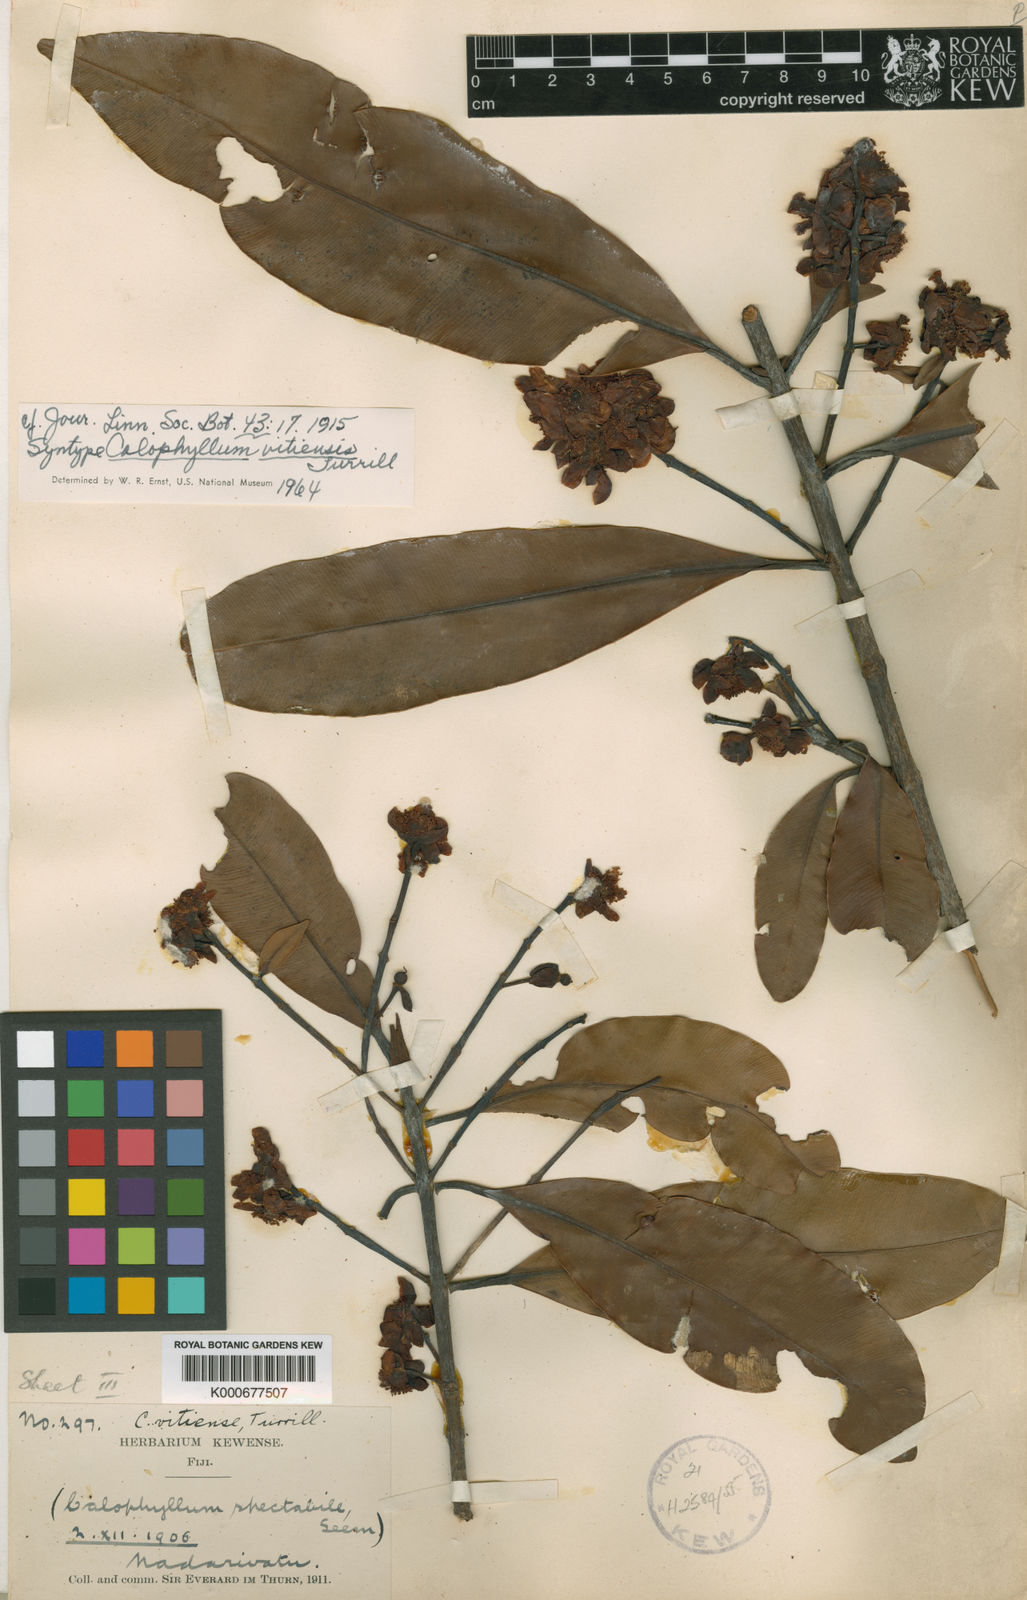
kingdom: Plantae
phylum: Tracheophyta
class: Magnoliopsida
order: Malpighiales
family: Calophyllaceae
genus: Calophyllum
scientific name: Calophyllum vitiense
